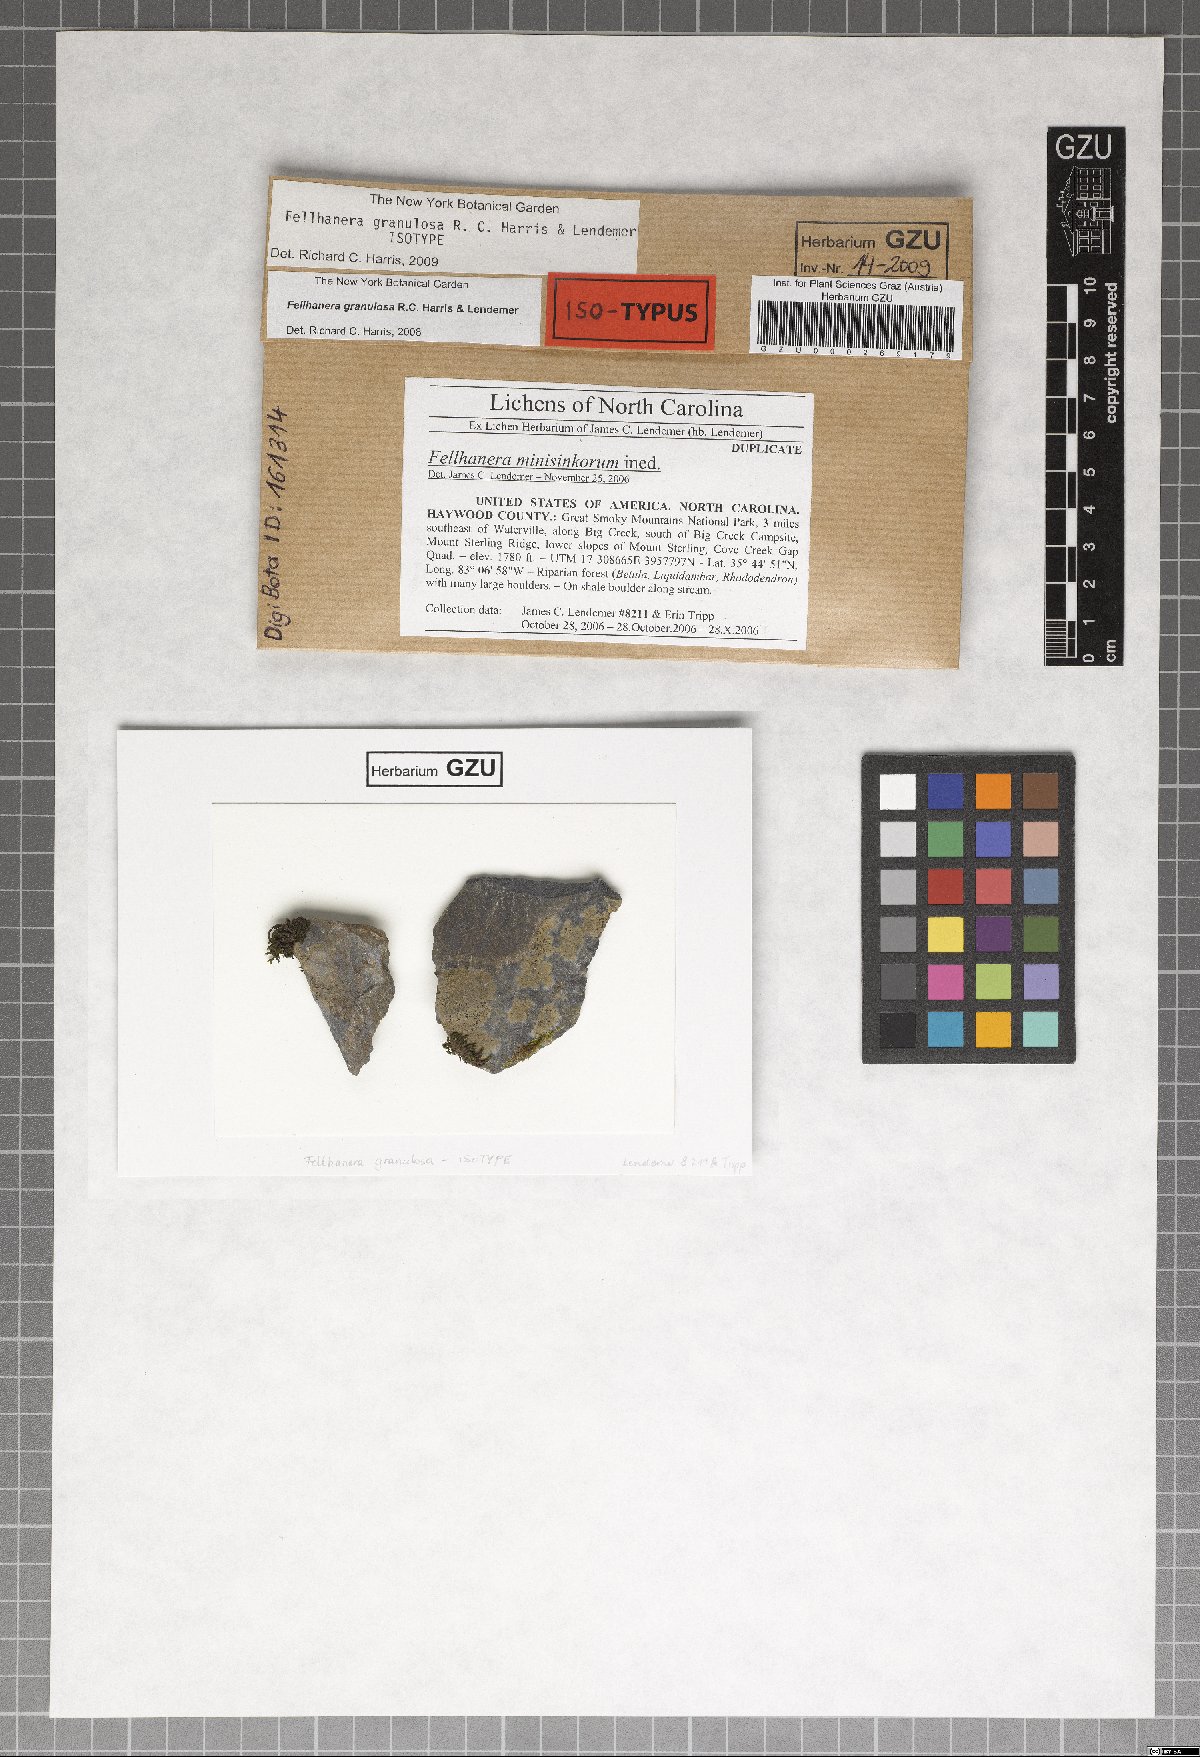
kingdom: Fungi
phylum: Ascomycota
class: Lecanoromycetes
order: Lecanorales
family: Byssolomataceae
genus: Fellhanera
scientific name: Fellhanera granulosa
